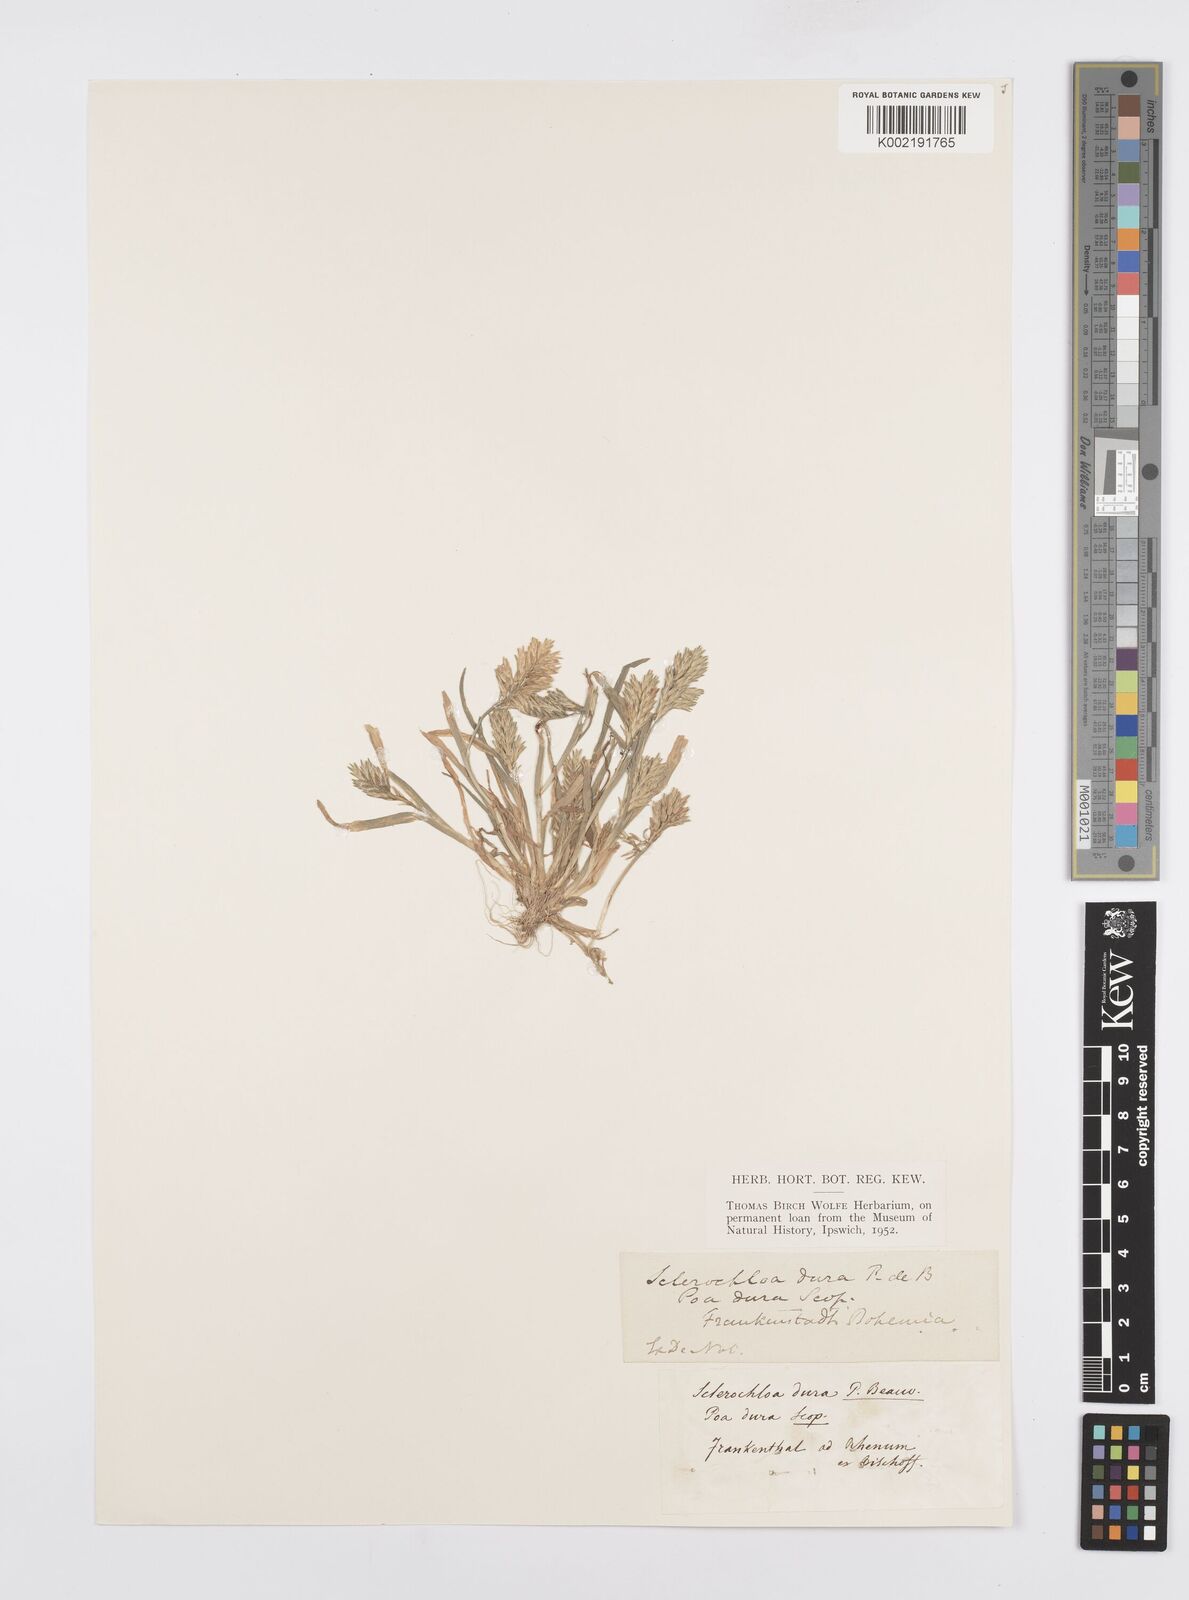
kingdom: Plantae
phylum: Tracheophyta
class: Liliopsida
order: Poales
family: Poaceae
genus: Sclerochloa
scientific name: Sclerochloa dura
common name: Common hardgrass
